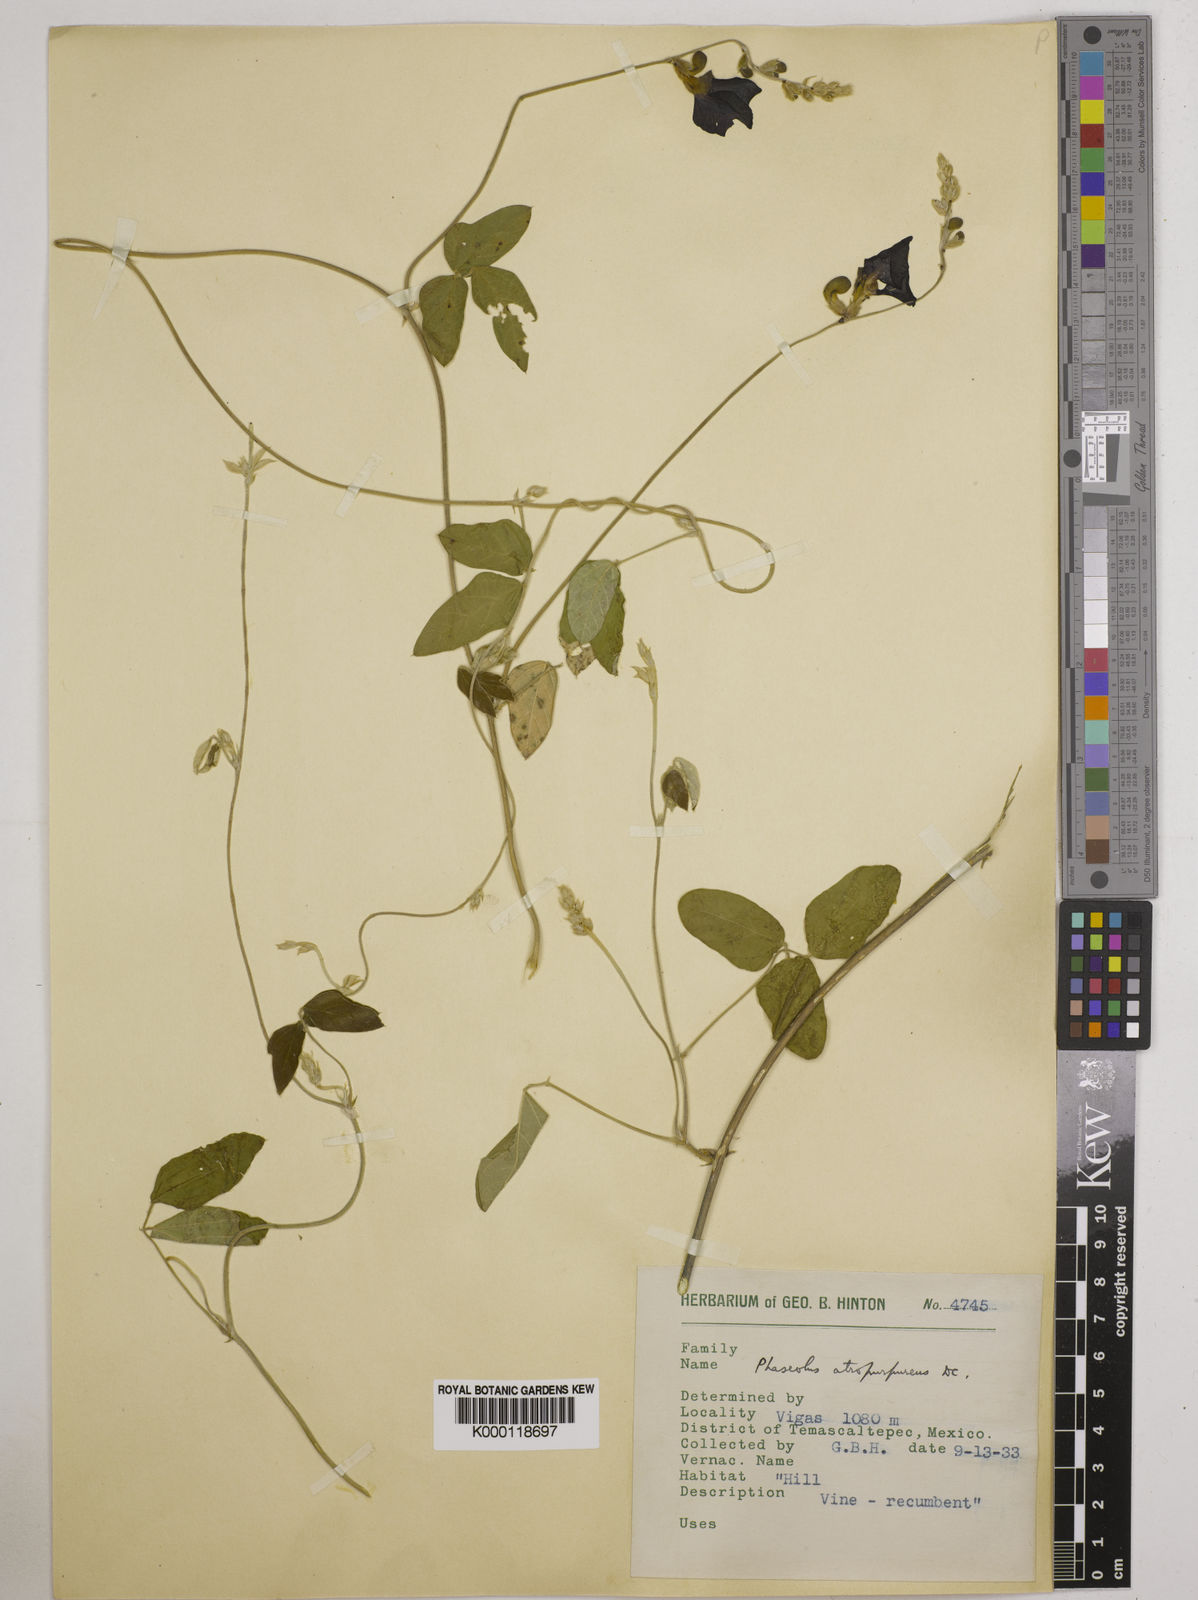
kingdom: Plantae
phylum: Tracheophyta
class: Magnoliopsida
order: Fabales
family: Fabaceae
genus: Macroptilium
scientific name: Macroptilium atropurpureum
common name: Purple bushbean
